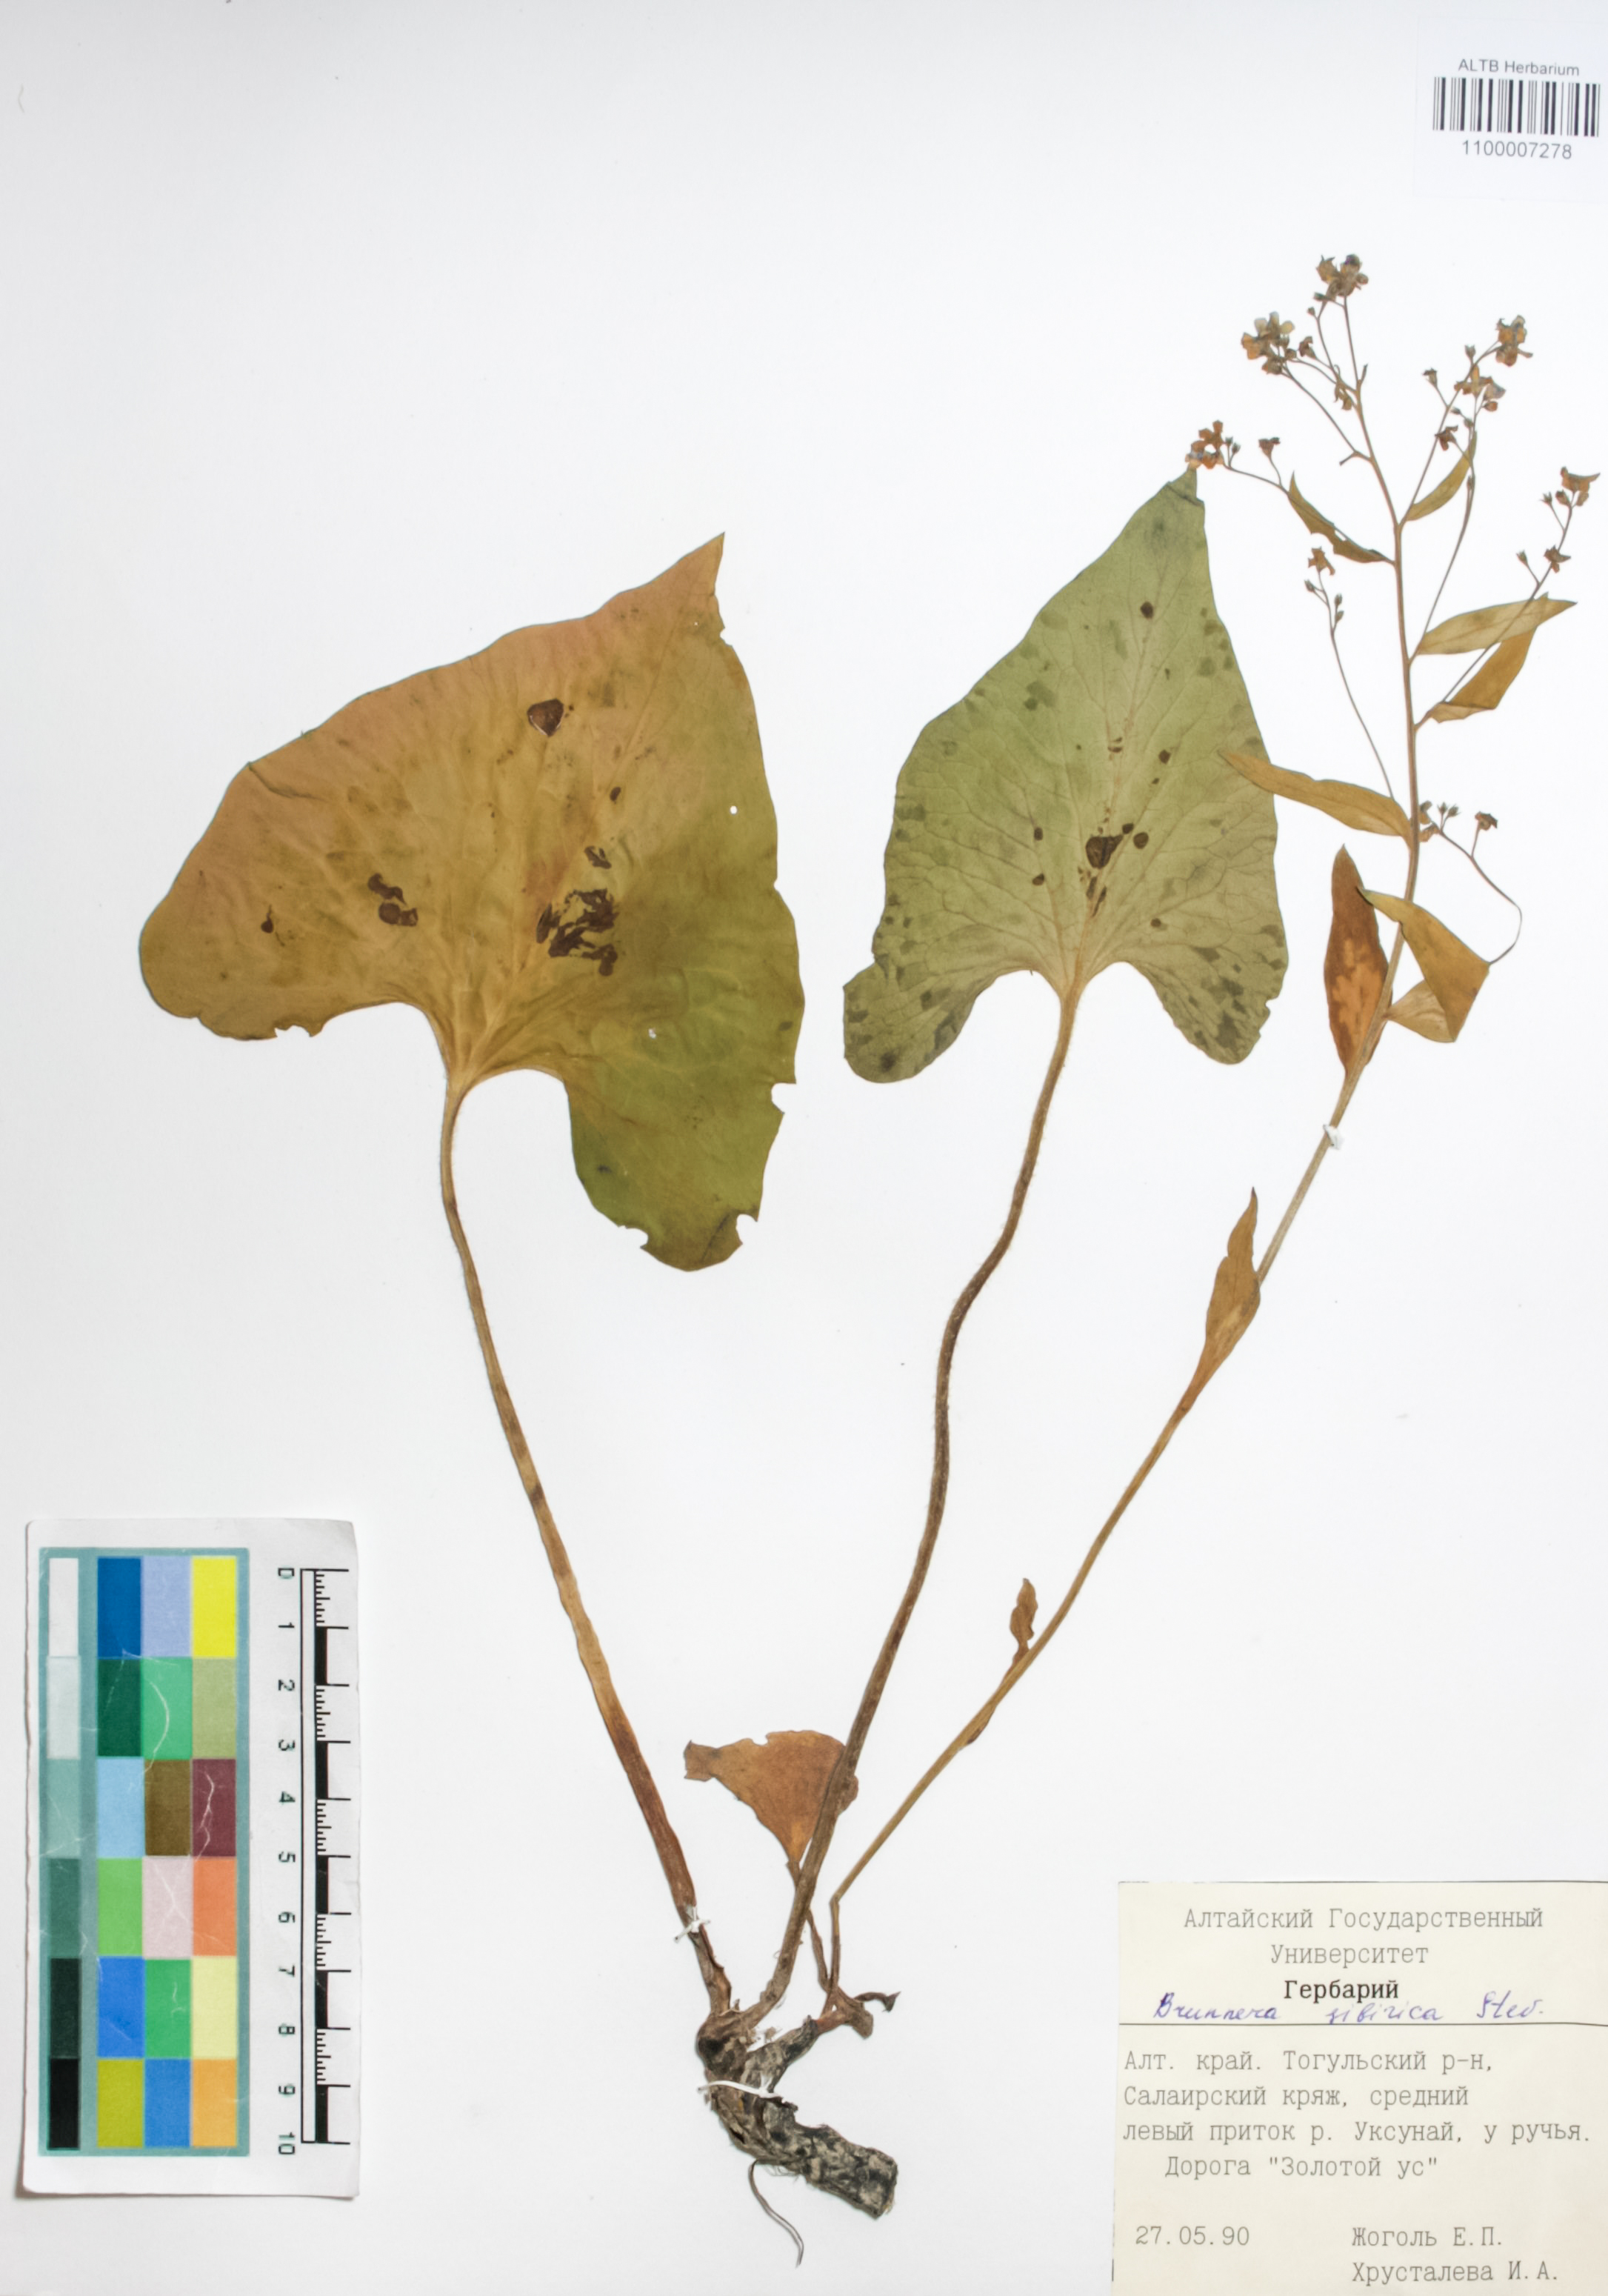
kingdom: Plantae
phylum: Tracheophyta
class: Magnoliopsida
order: Boraginales
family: Boraginaceae
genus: Brunnera
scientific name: Brunnera sibirica
